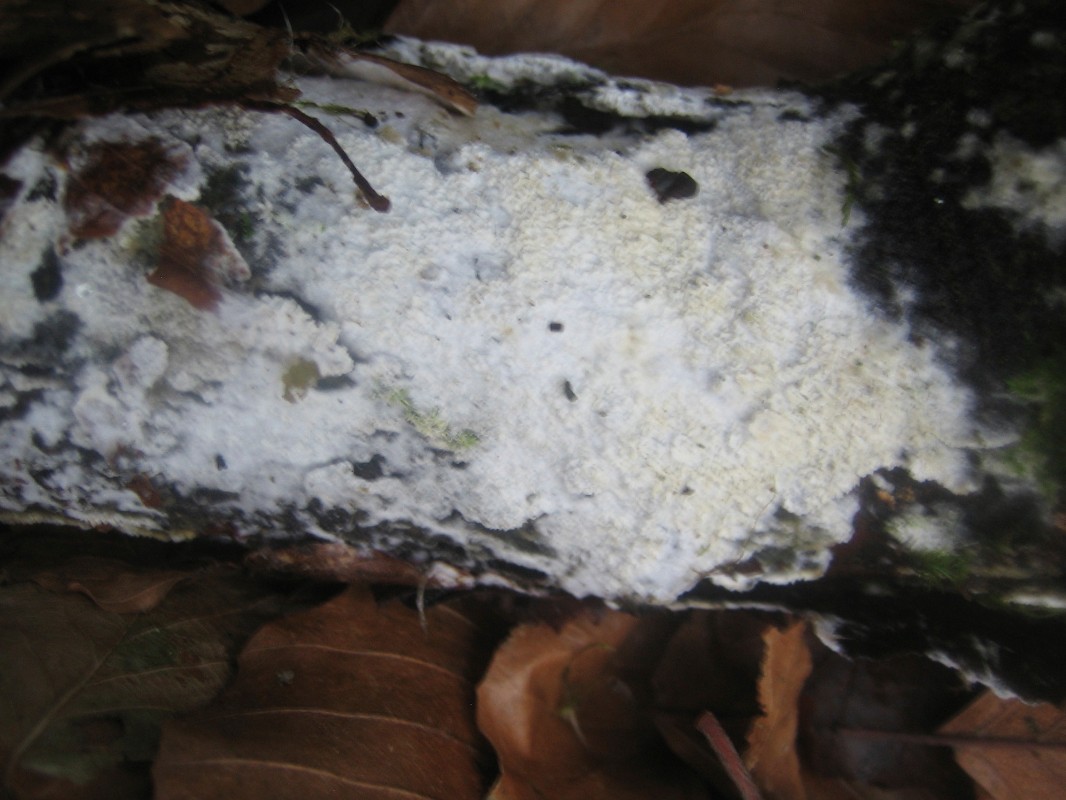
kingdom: Fungi
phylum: Basidiomycota
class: Agaricomycetes
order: Hymenochaetales
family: Schizoporaceae
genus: Schizopora
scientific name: Schizopora paradoxa
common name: hvid tandsvamp
